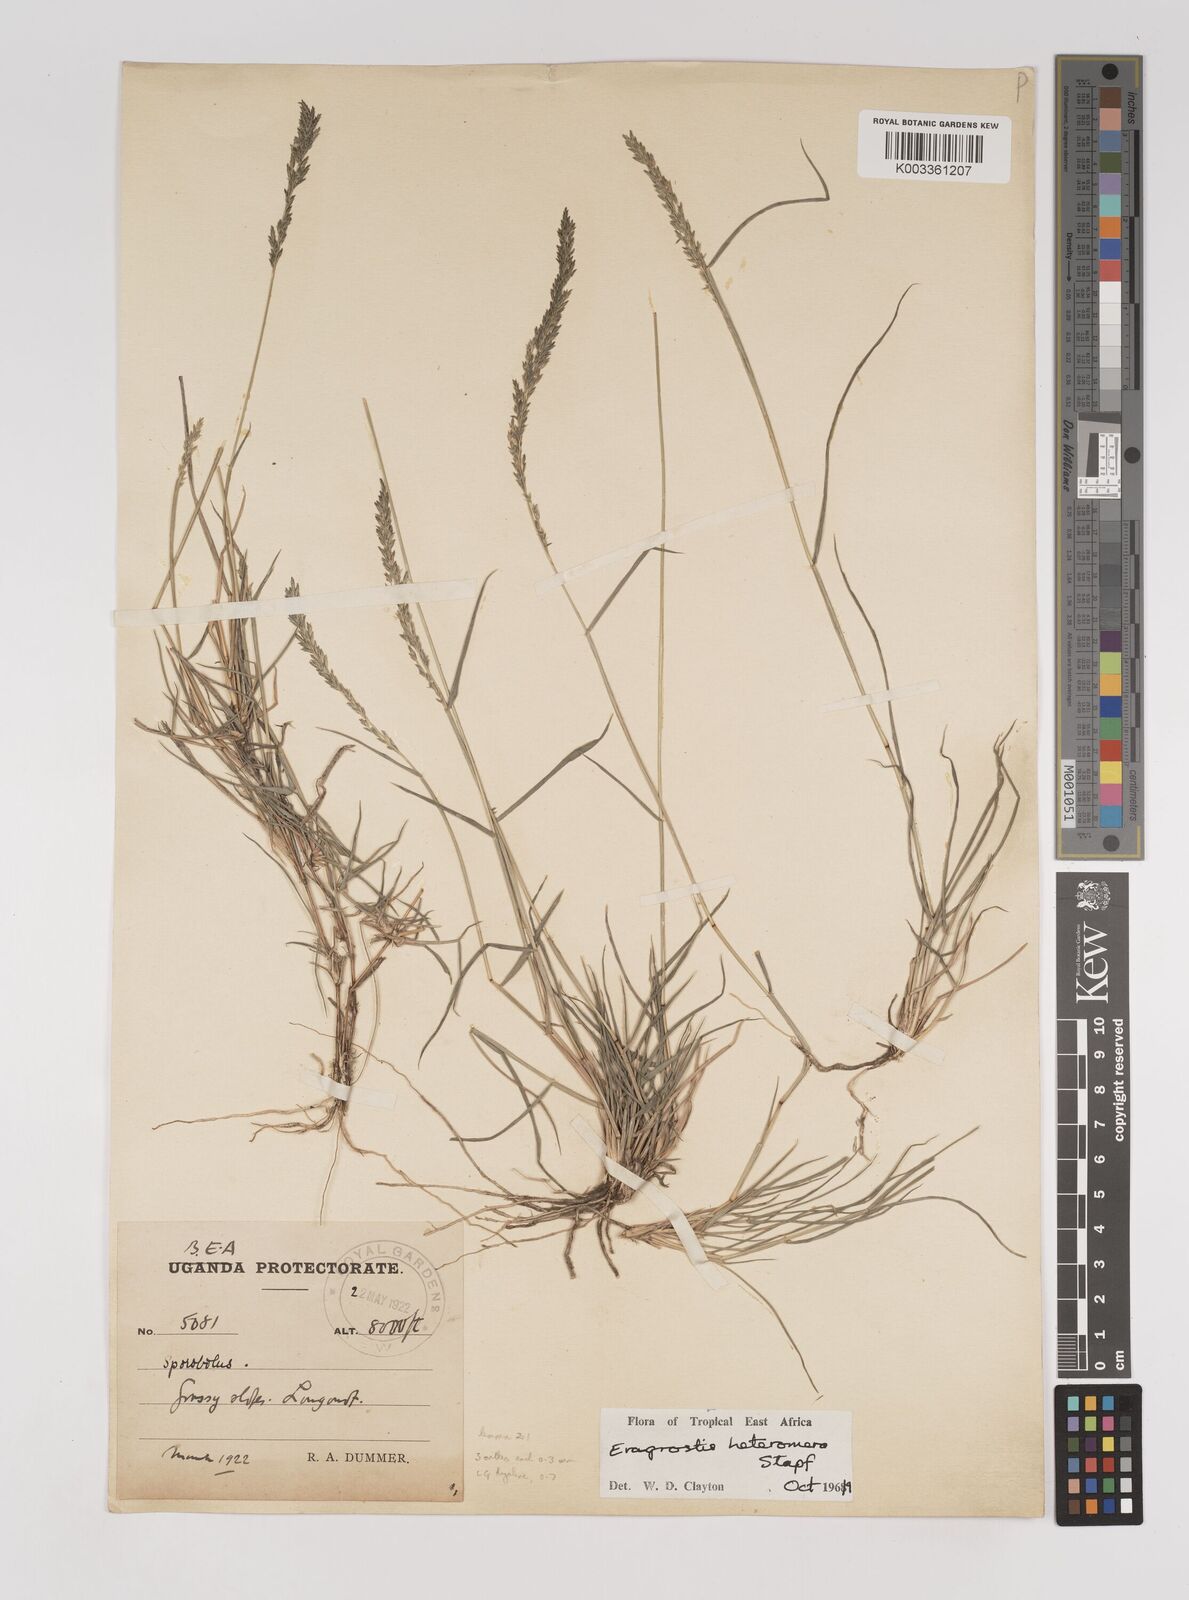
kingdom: Plantae
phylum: Tracheophyta
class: Liliopsida
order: Poales
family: Poaceae
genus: Eragrostis
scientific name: Eragrostis heteromera
